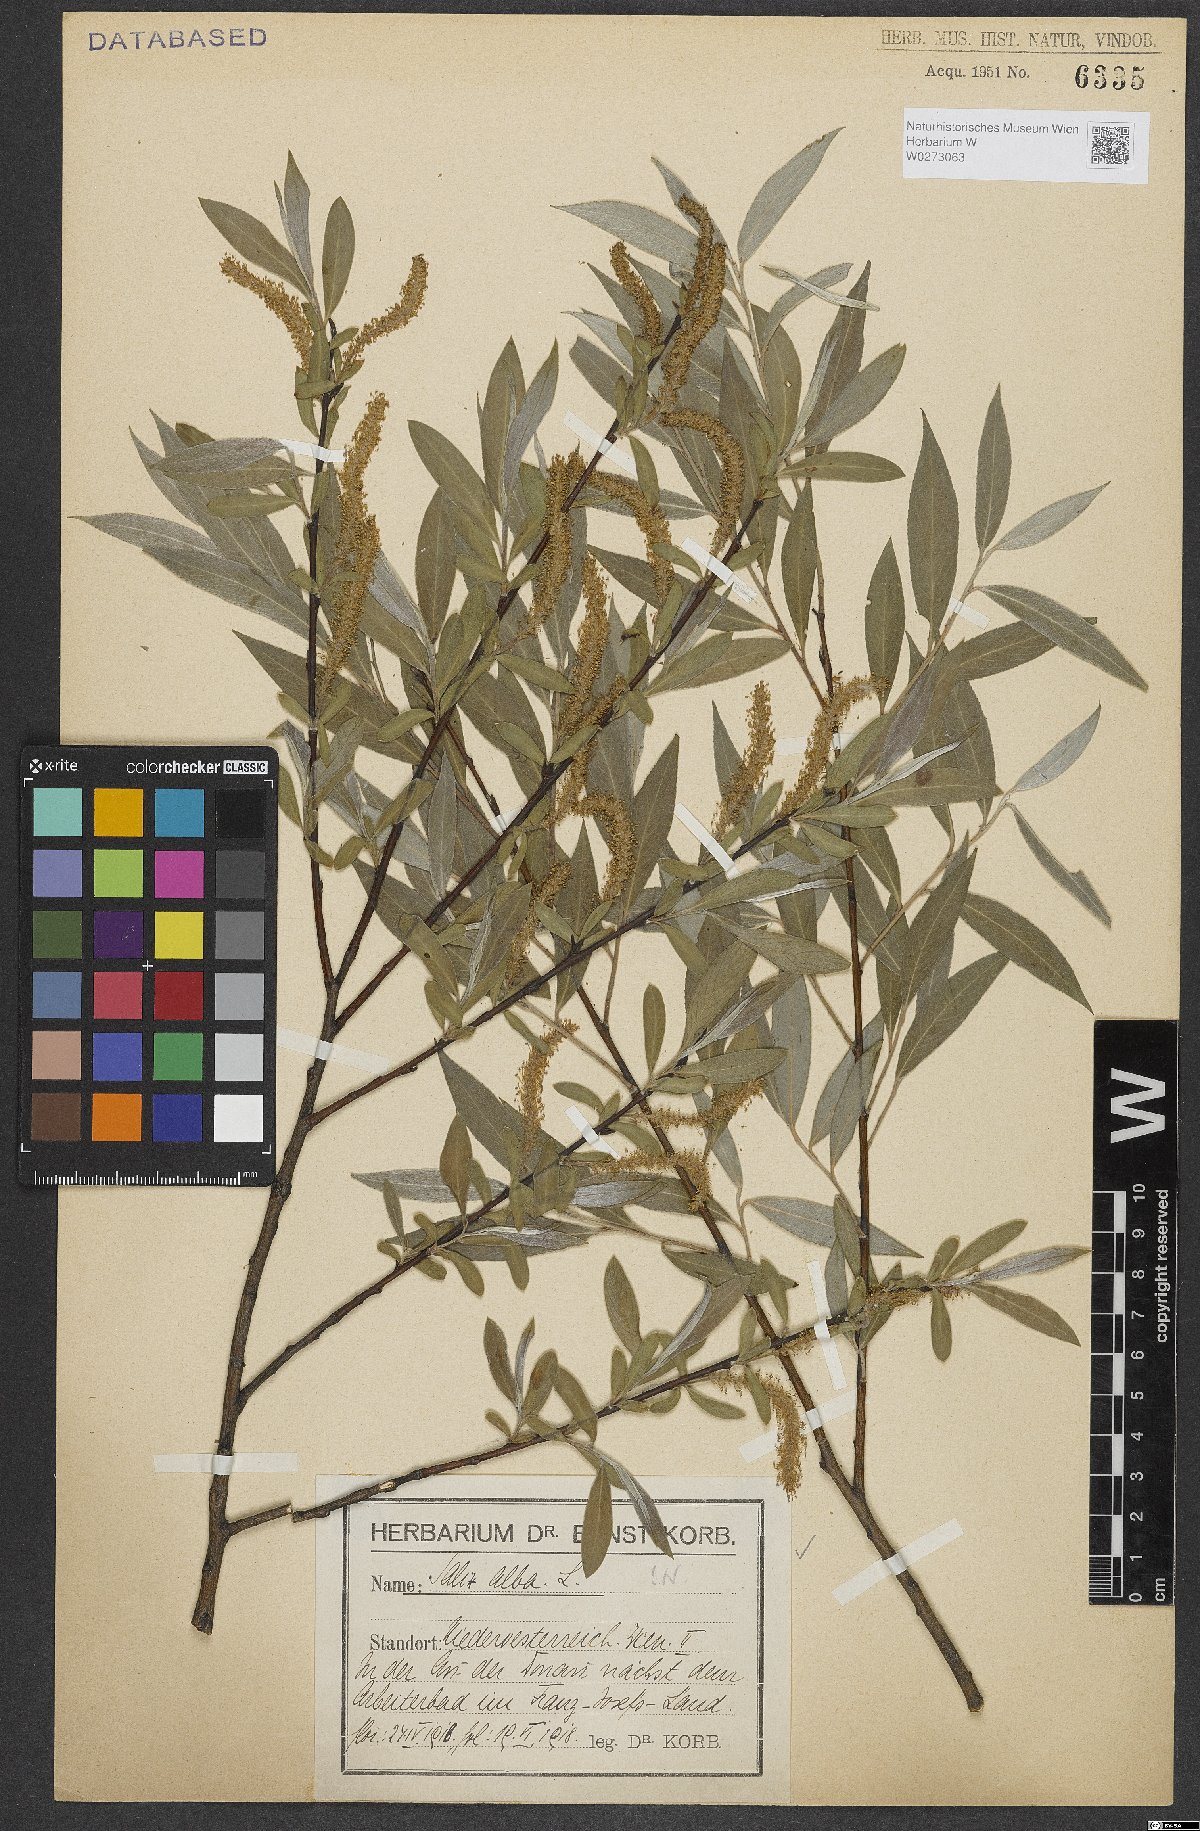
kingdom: Plantae
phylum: Tracheophyta
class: Magnoliopsida
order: Malpighiales
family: Salicaceae
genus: Salix
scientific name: Salix alba
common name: White willow
